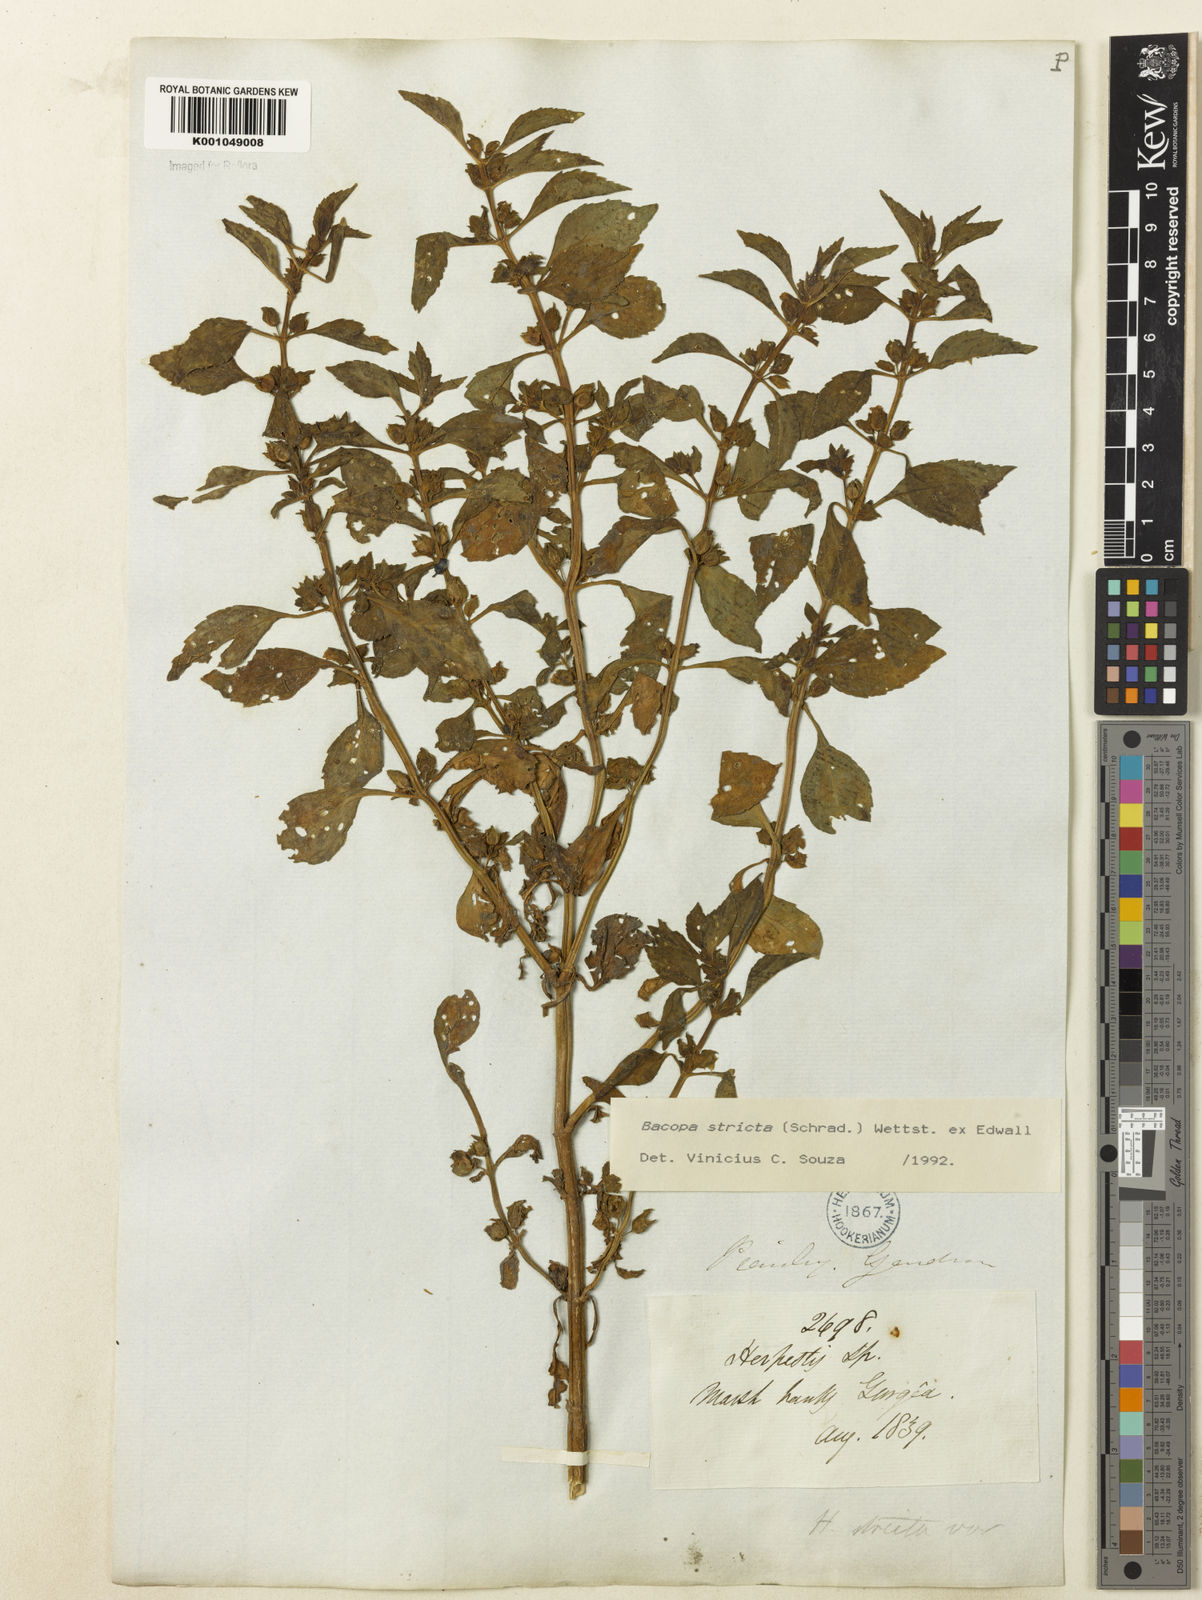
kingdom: Plantae
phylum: Tracheophyta
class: Magnoliopsida
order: Lamiales
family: Plantaginaceae
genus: Bacopa
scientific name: Bacopa stricta
